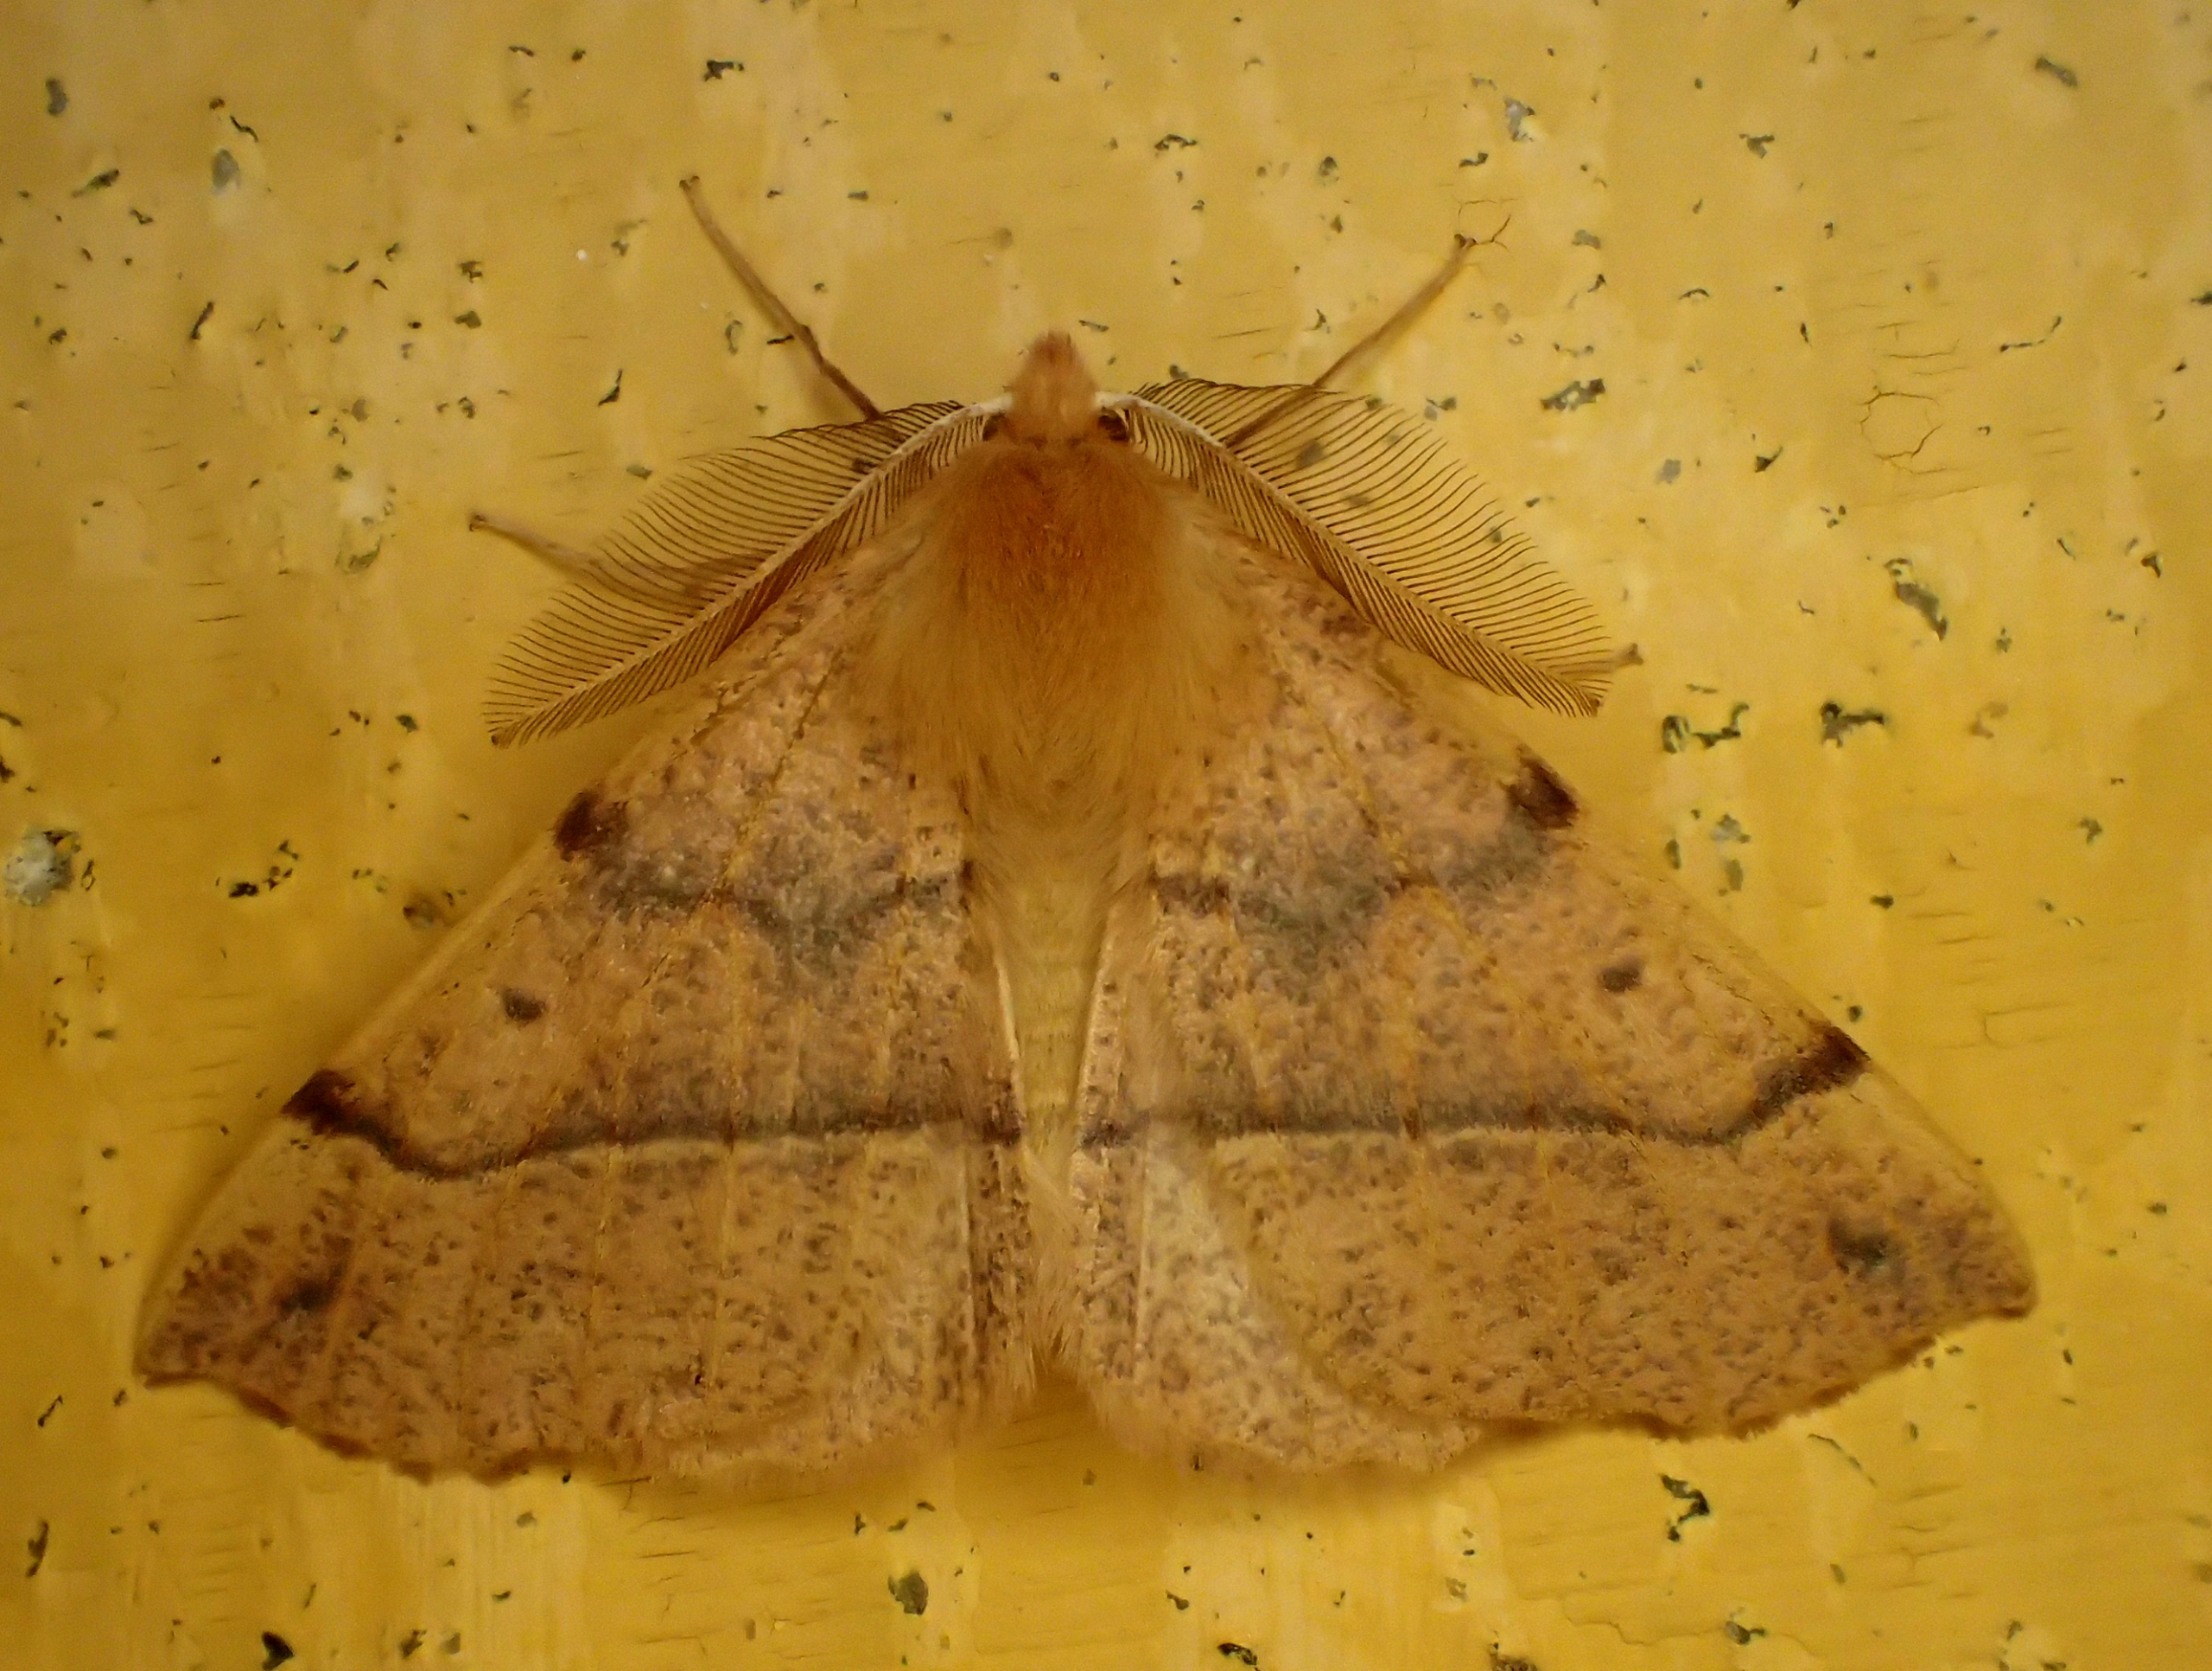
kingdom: Animalia
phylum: Arthropoda
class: Insecta
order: Lepidoptera
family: Geometridae
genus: Colotois
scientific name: Colotois pennaria
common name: Løvfaldsmåler
